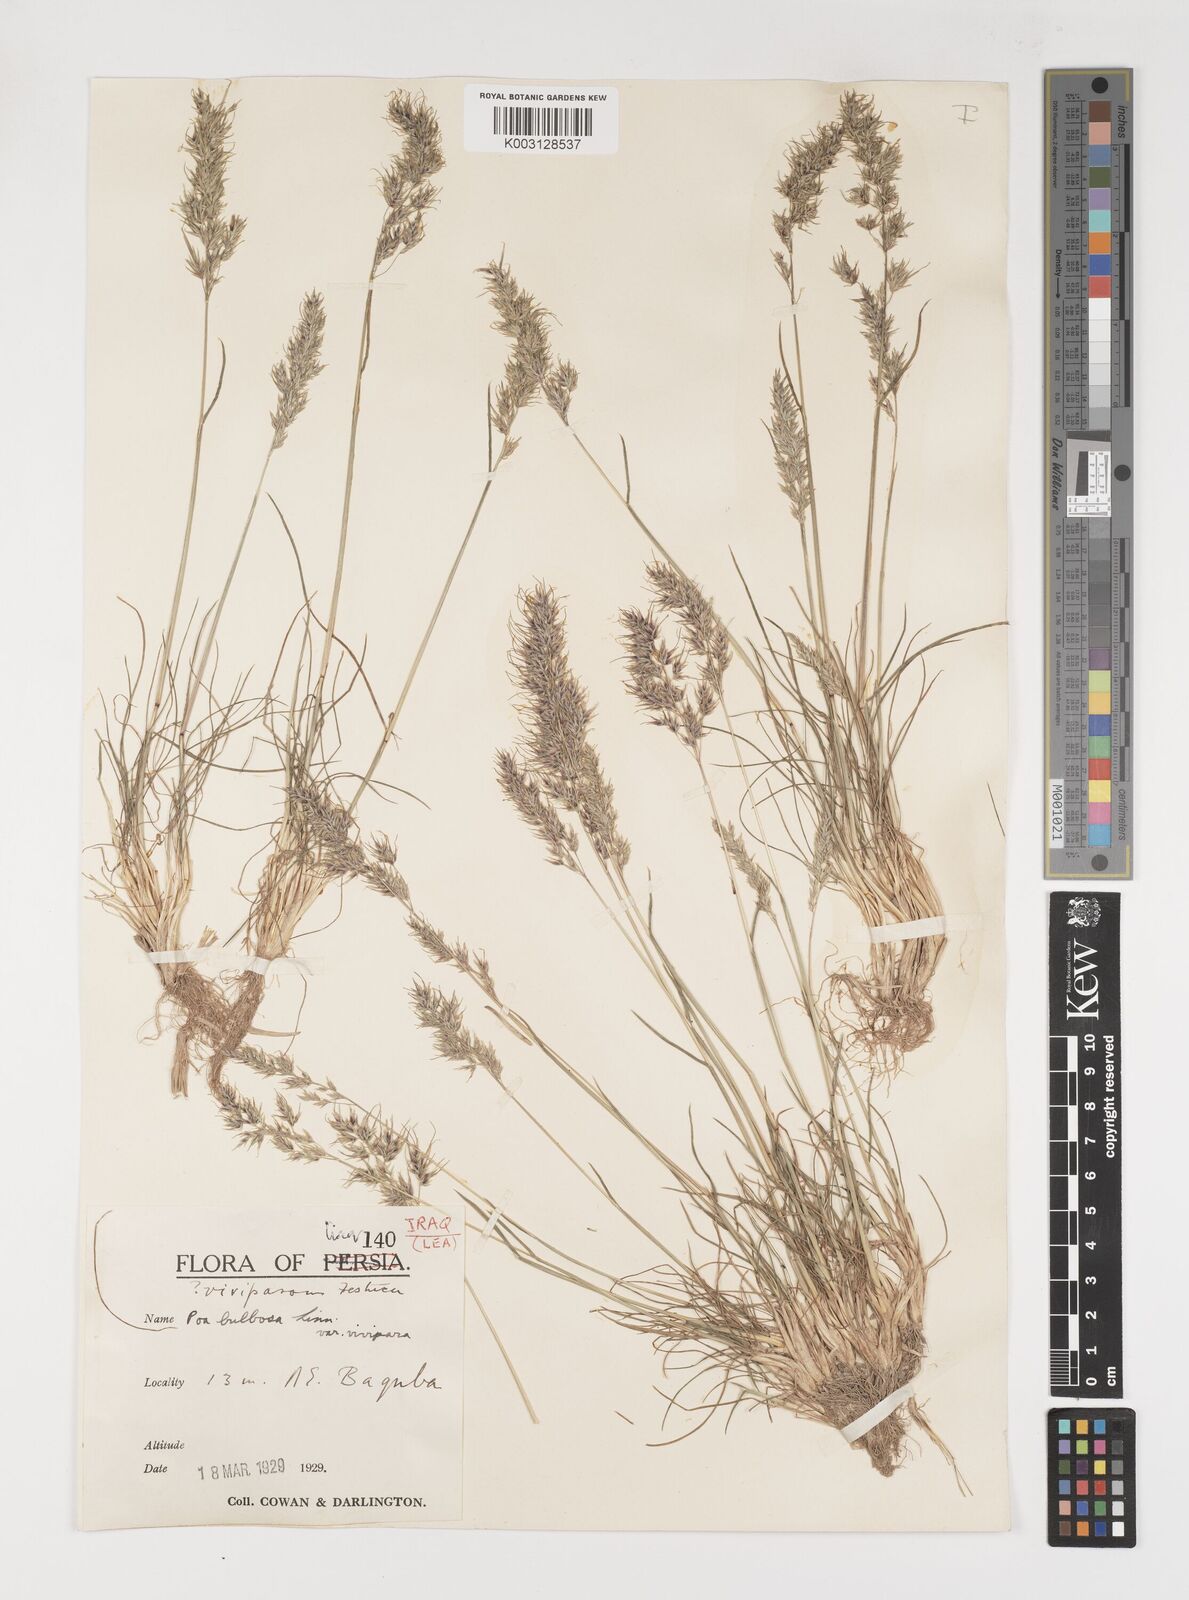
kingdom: Plantae
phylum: Tracheophyta
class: Liliopsida
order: Poales
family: Poaceae
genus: Poa
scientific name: Poa sinaica
